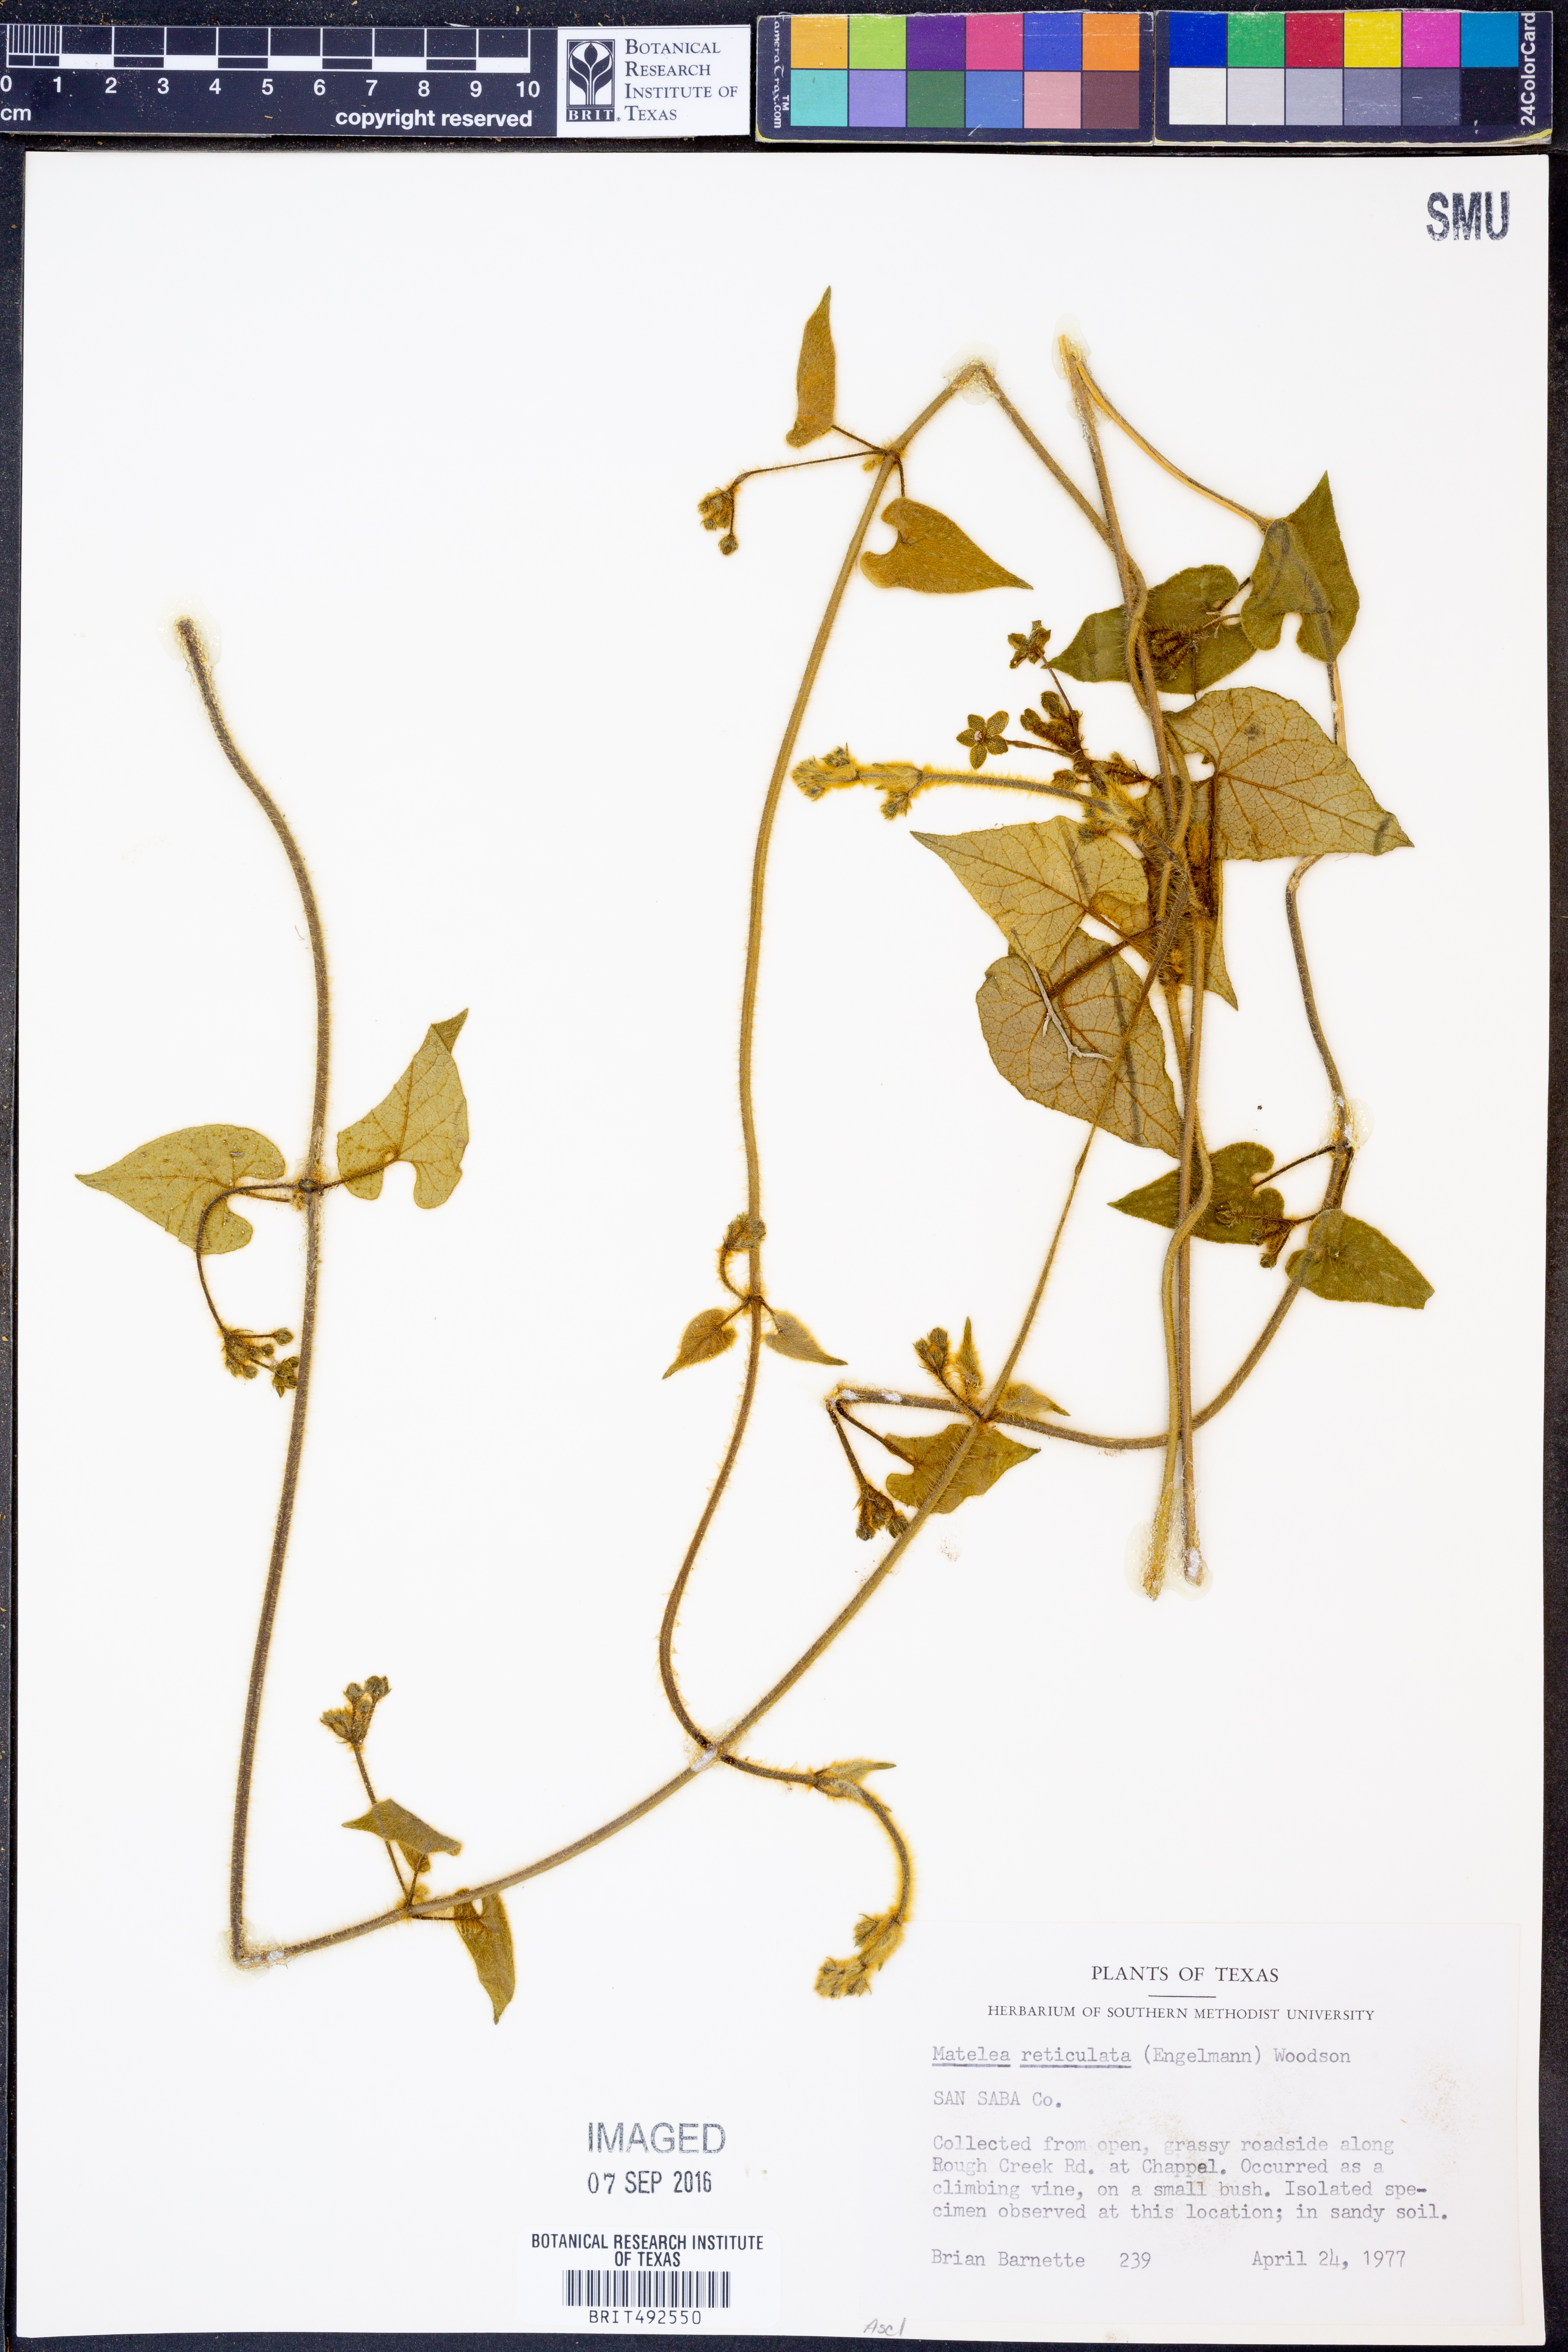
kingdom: Plantae
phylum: Tracheophyta
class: Magnoliopsida
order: Gentianales
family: Apocynaceae
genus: Dictyanthus
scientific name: Dictyanthus reticulatus
